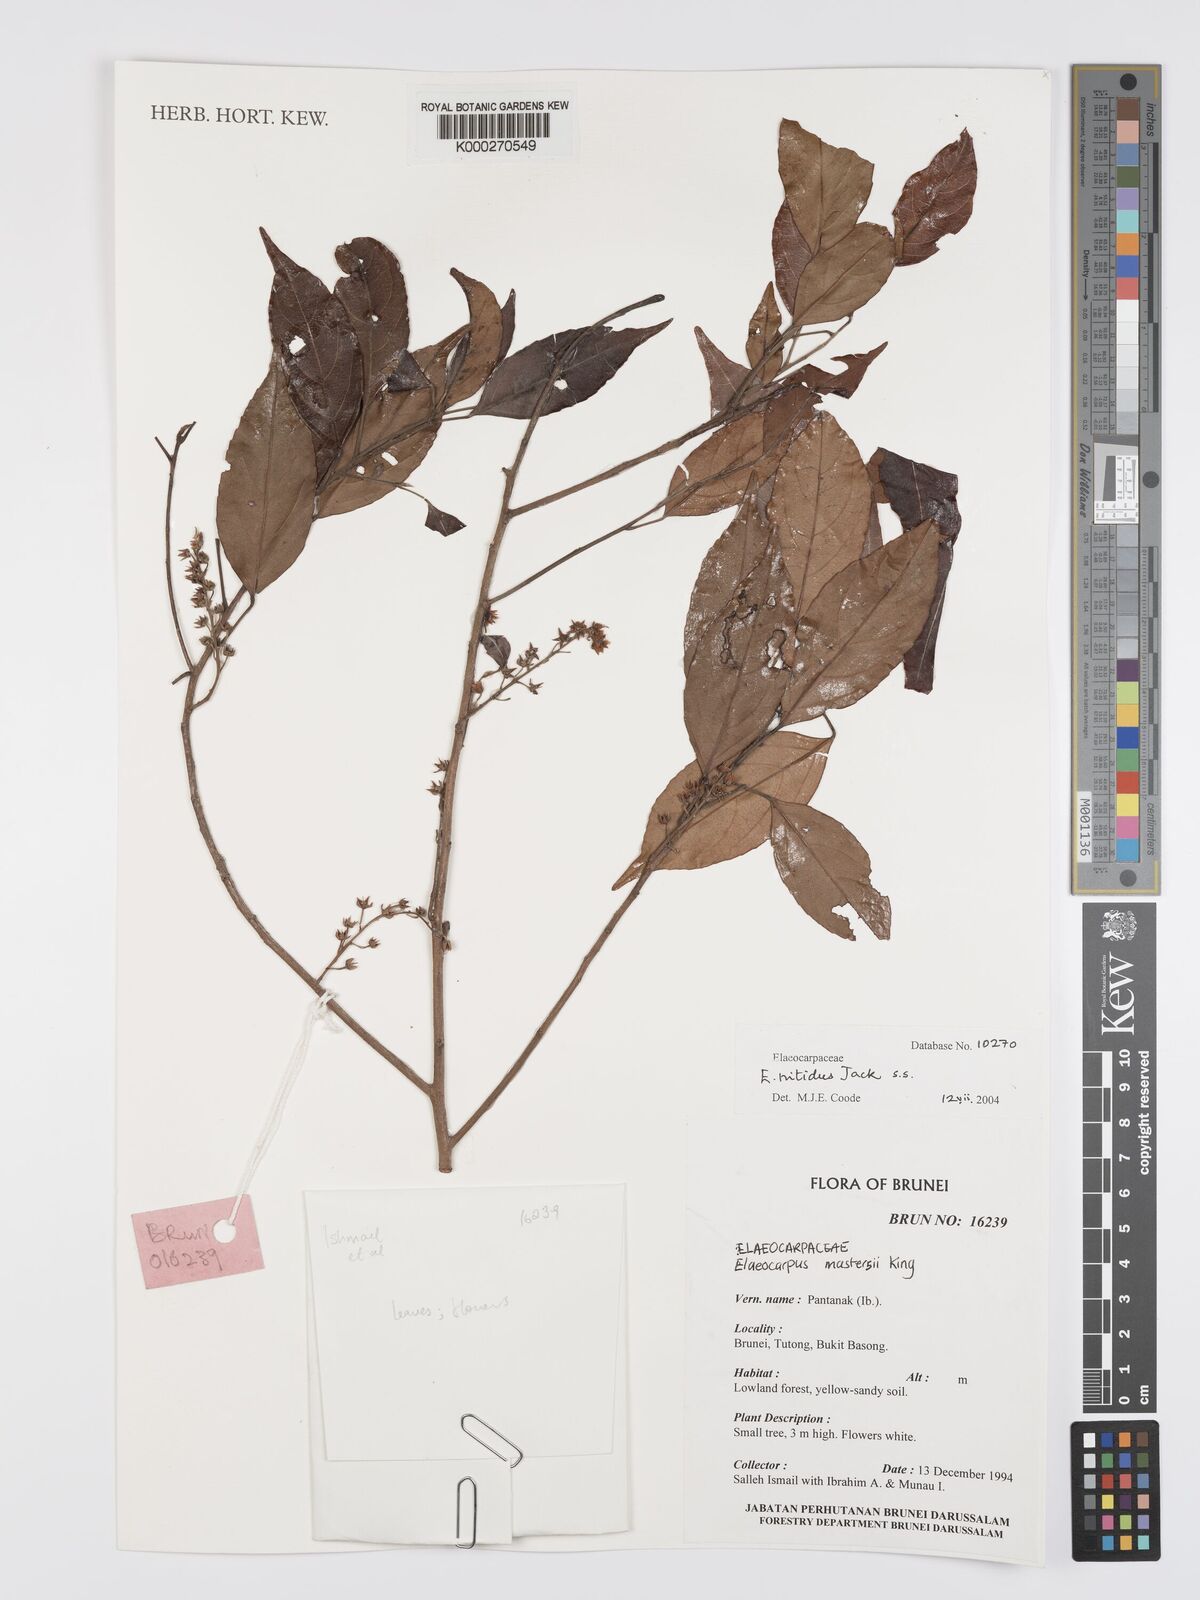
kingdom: Plantae
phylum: Tracheophyta
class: Magnoliopsida
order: Oxalidales
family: Elaeocarpaceae
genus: Elaeocarpus
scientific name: Elaeocarpus nitidus
